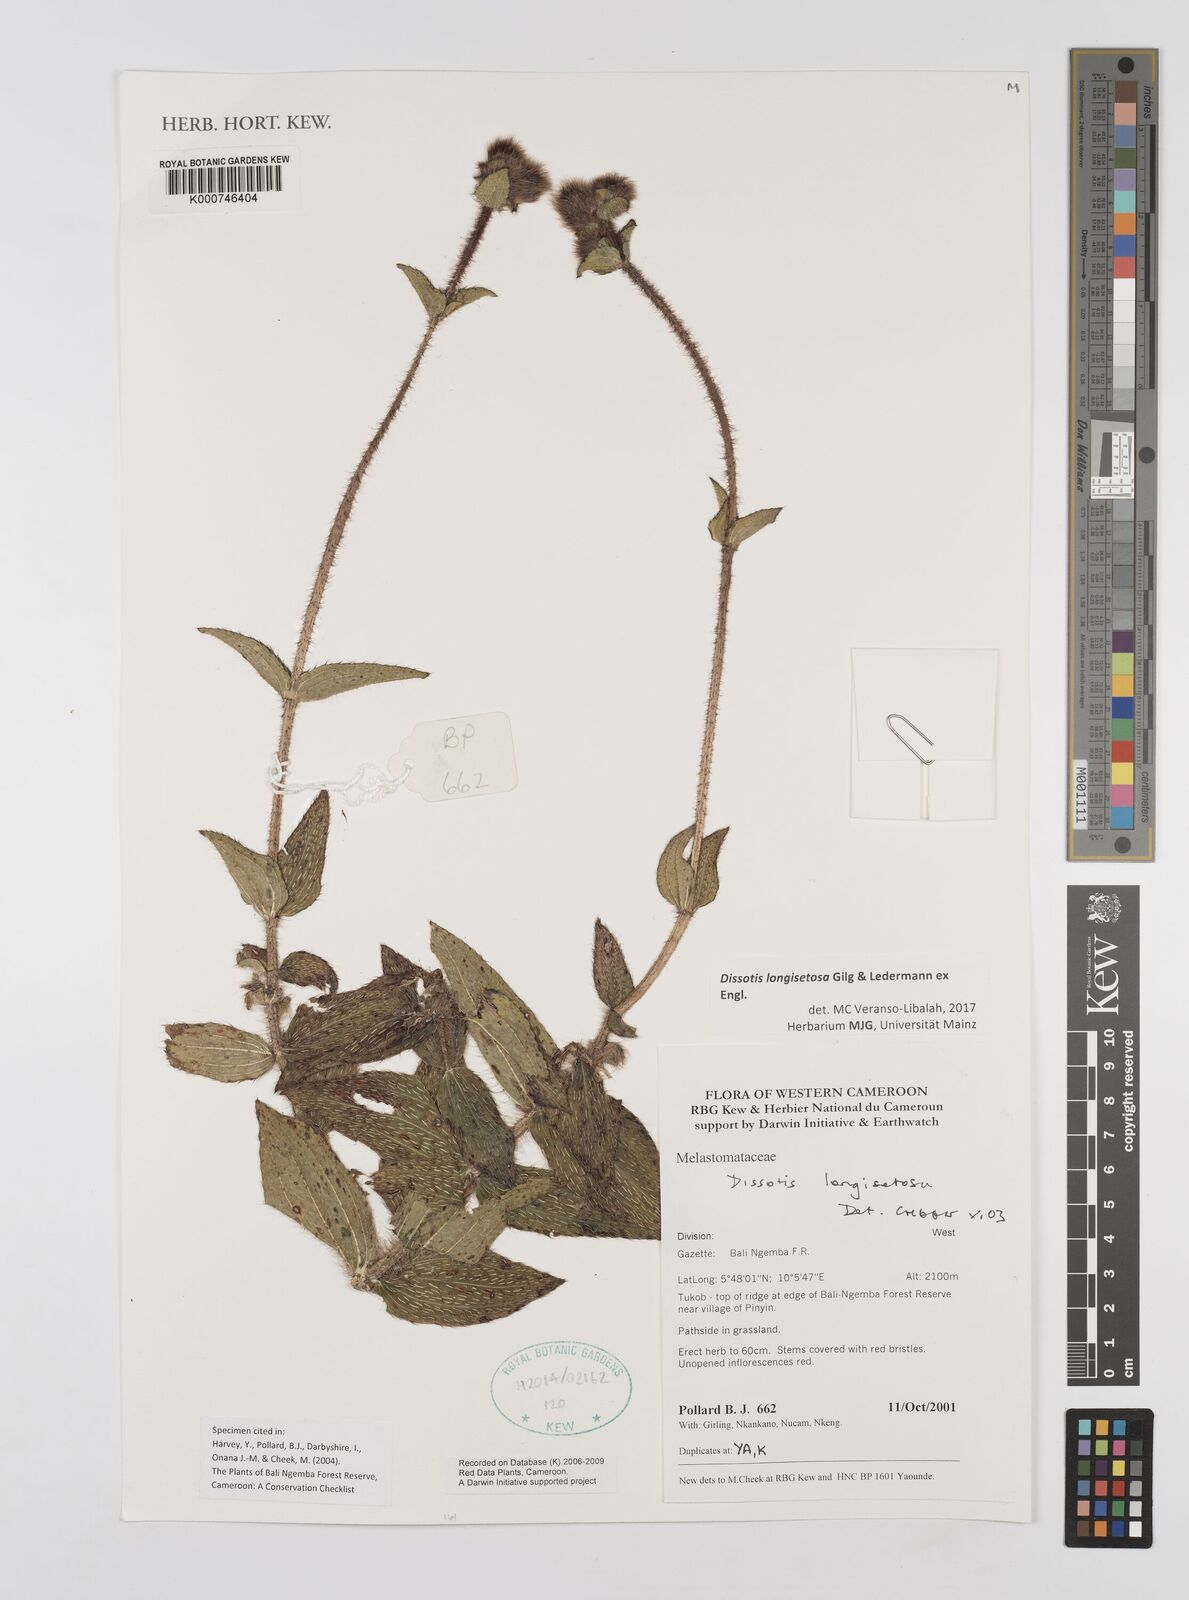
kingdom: Plantae
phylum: Tracheophyta
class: Magnoliopsida
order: Myrtales
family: Melastomataceae
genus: Dissotis
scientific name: Dissotis longisetosa
